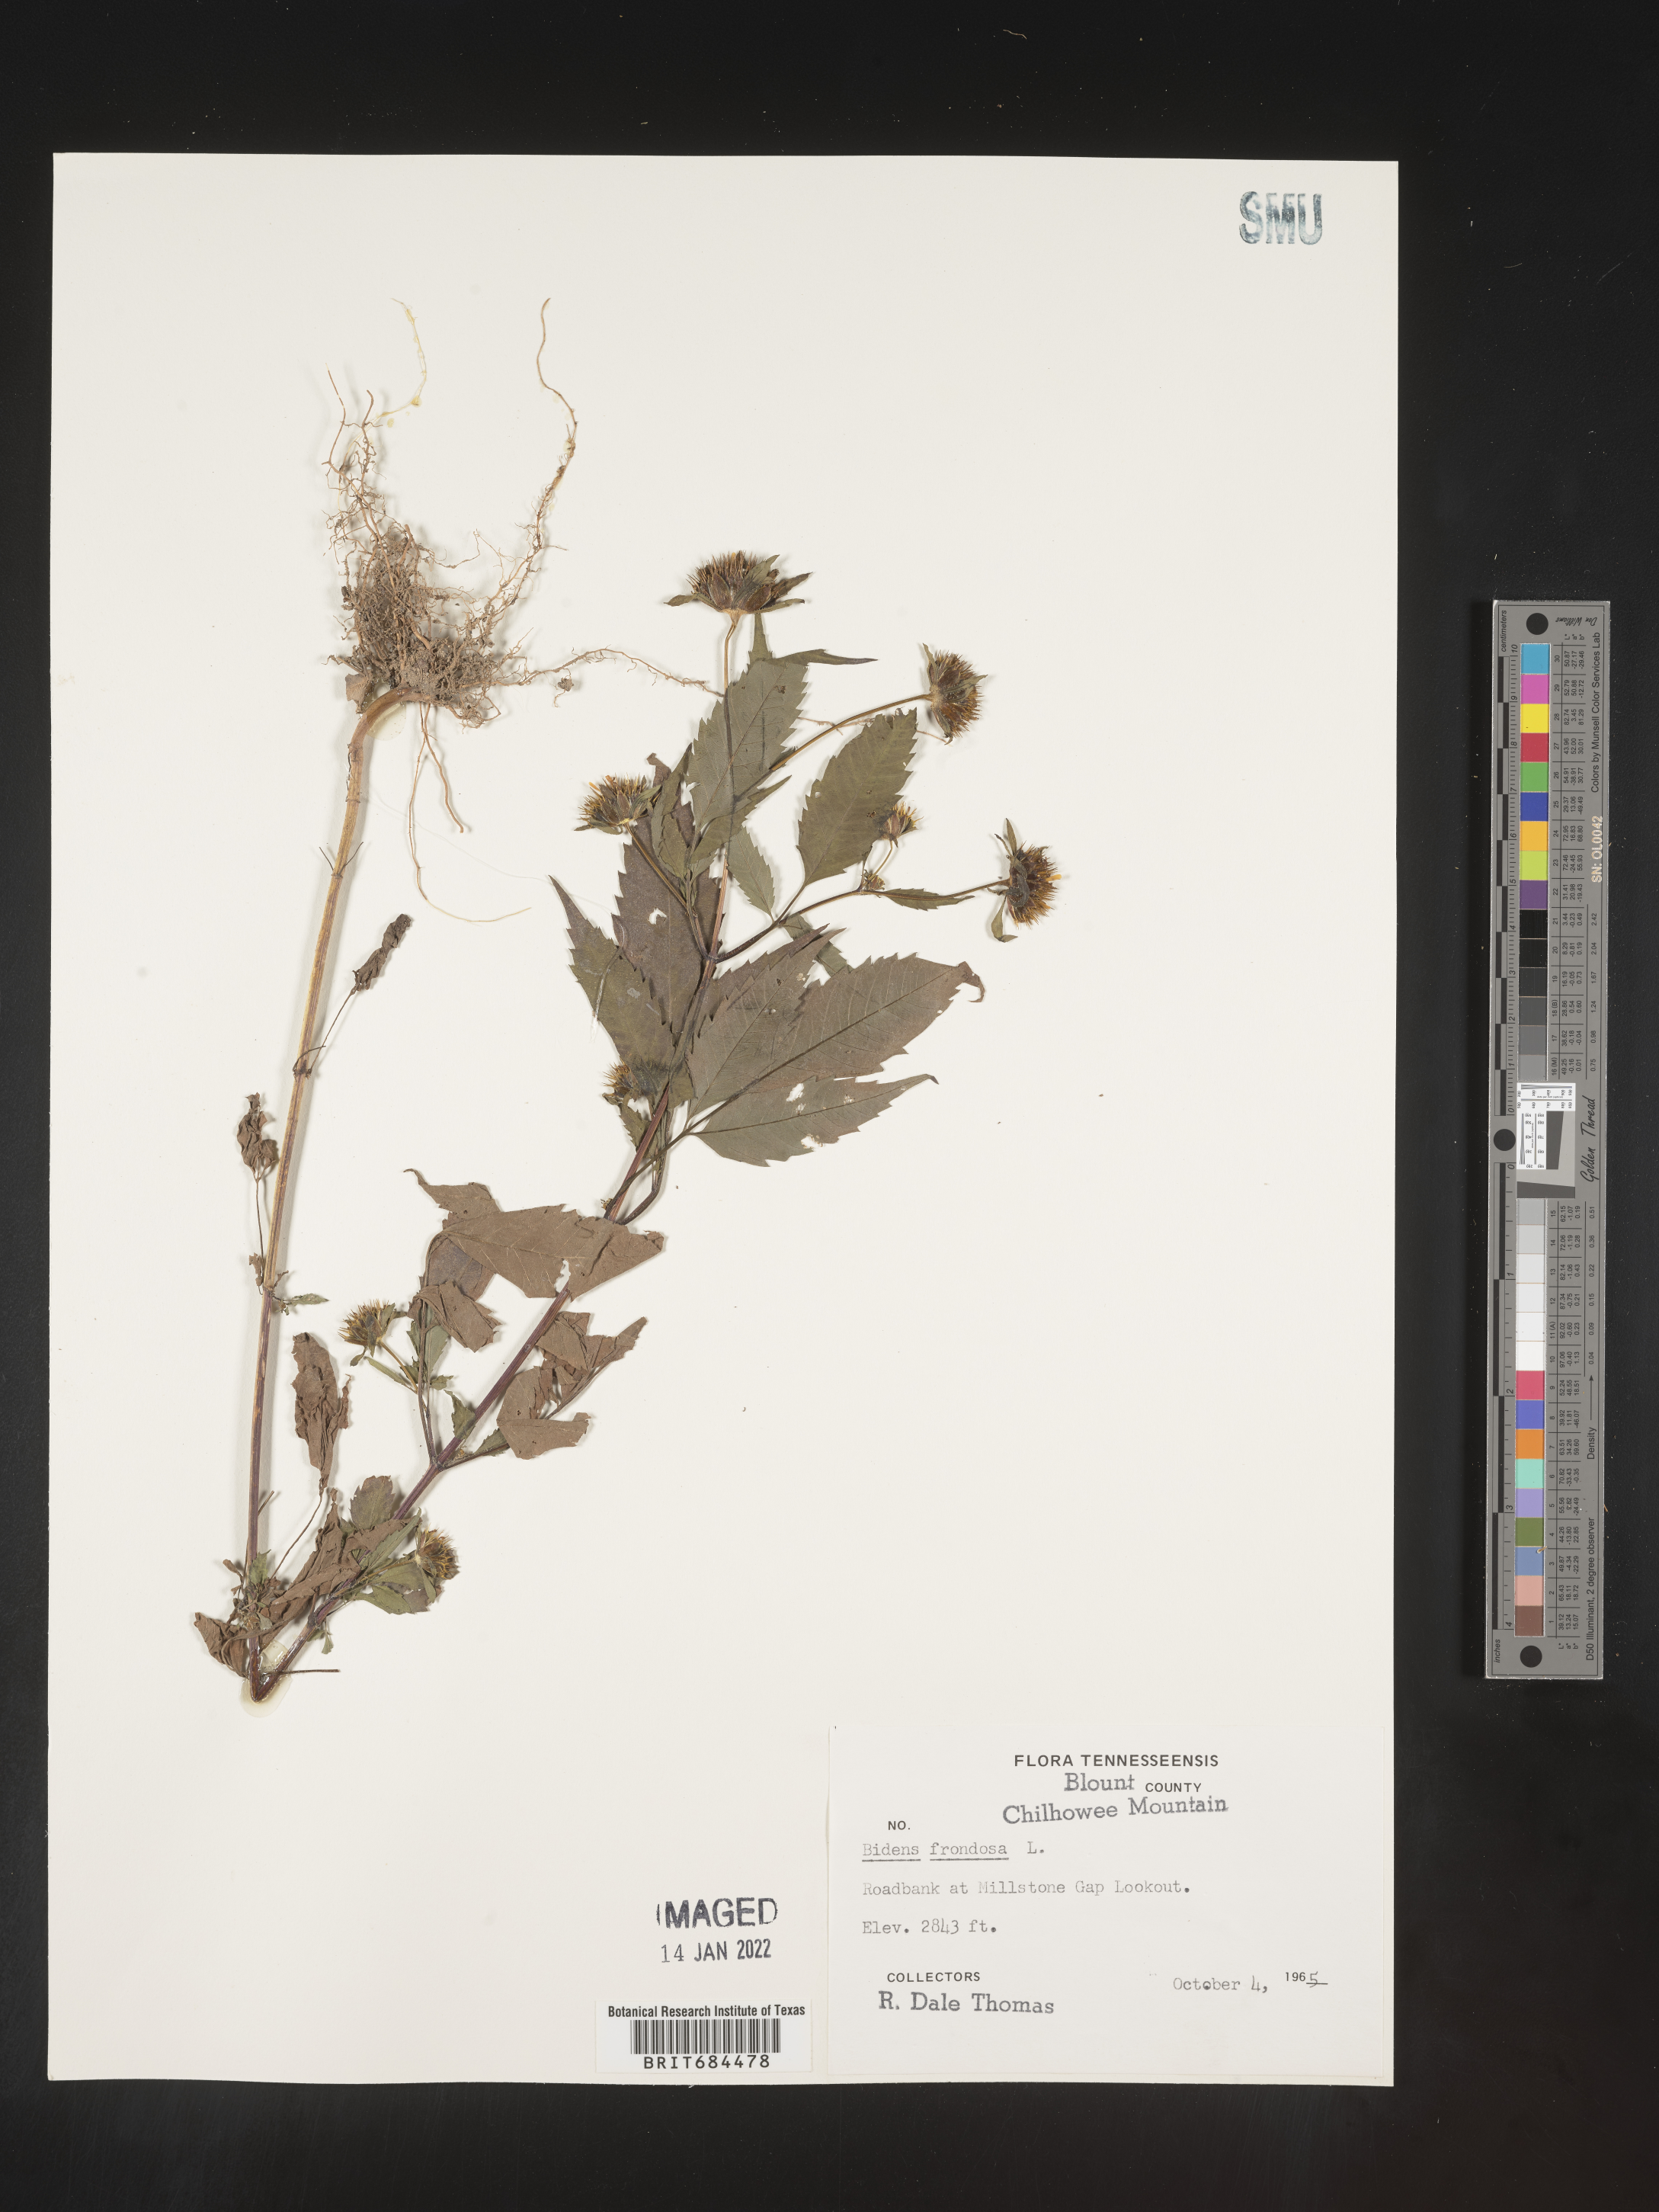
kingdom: Plantae
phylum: Tracheophyta
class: Magnoliopsida
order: Asterales
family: Asteraceae
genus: Bidens
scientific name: Bidens frondosa
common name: Beggarticks
